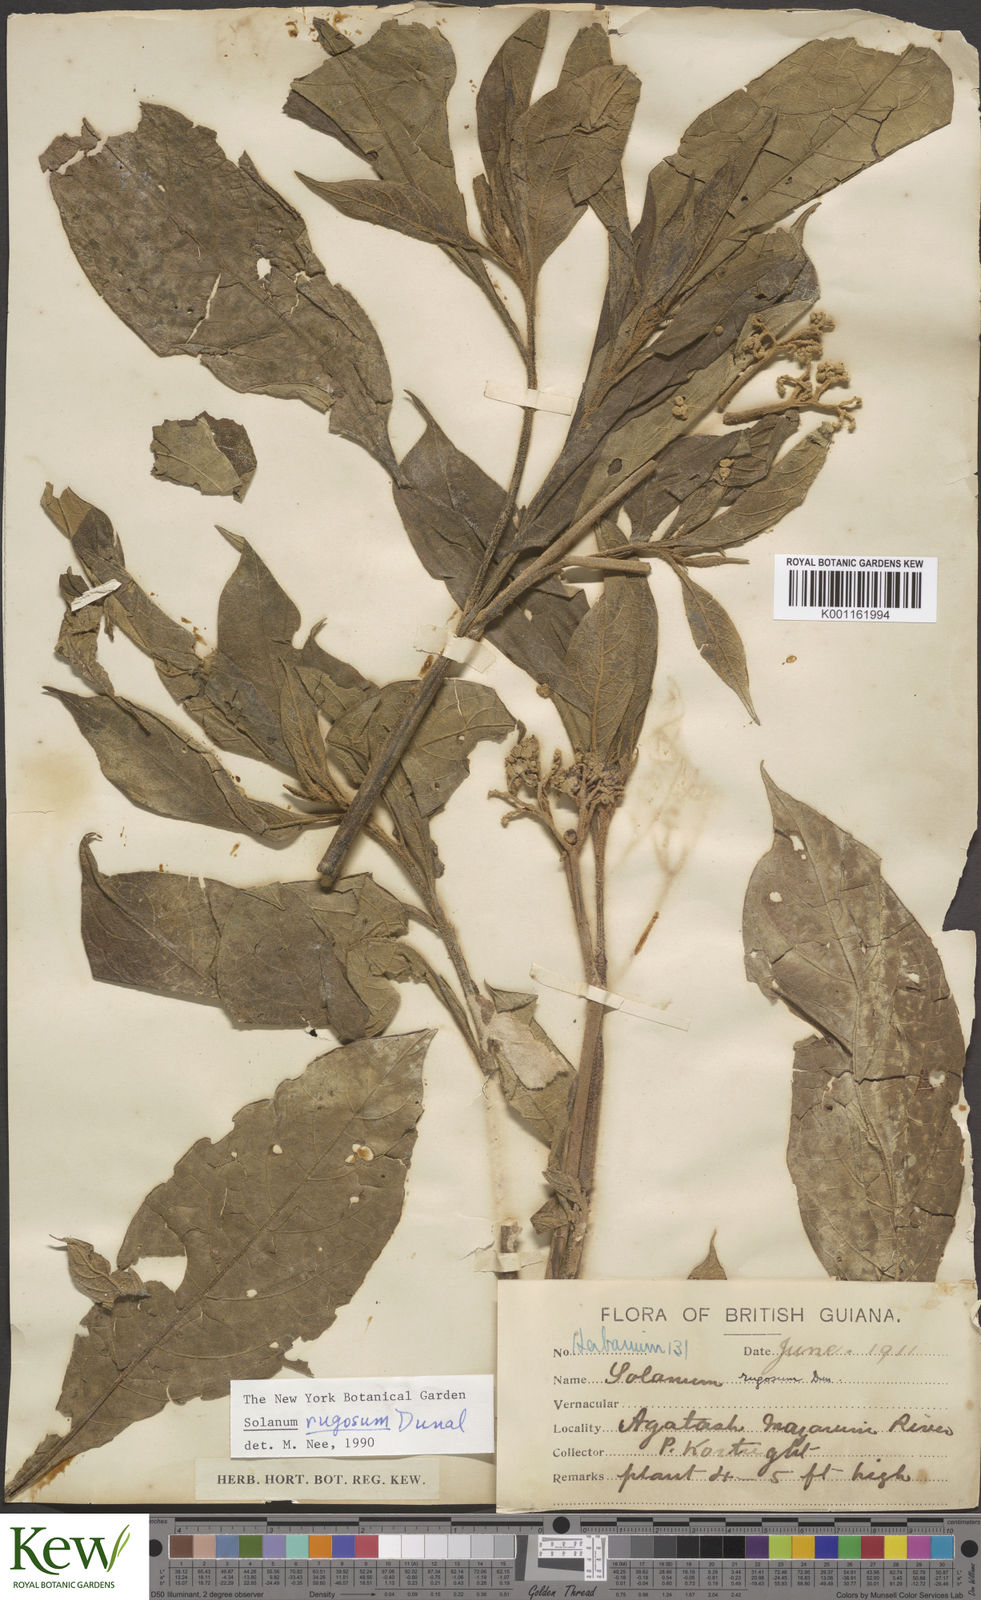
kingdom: Plantae
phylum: Tracheophyta
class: Magnoliopsida
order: Solanales
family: Solanaceae
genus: Solanum
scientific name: Solanum rugosum
